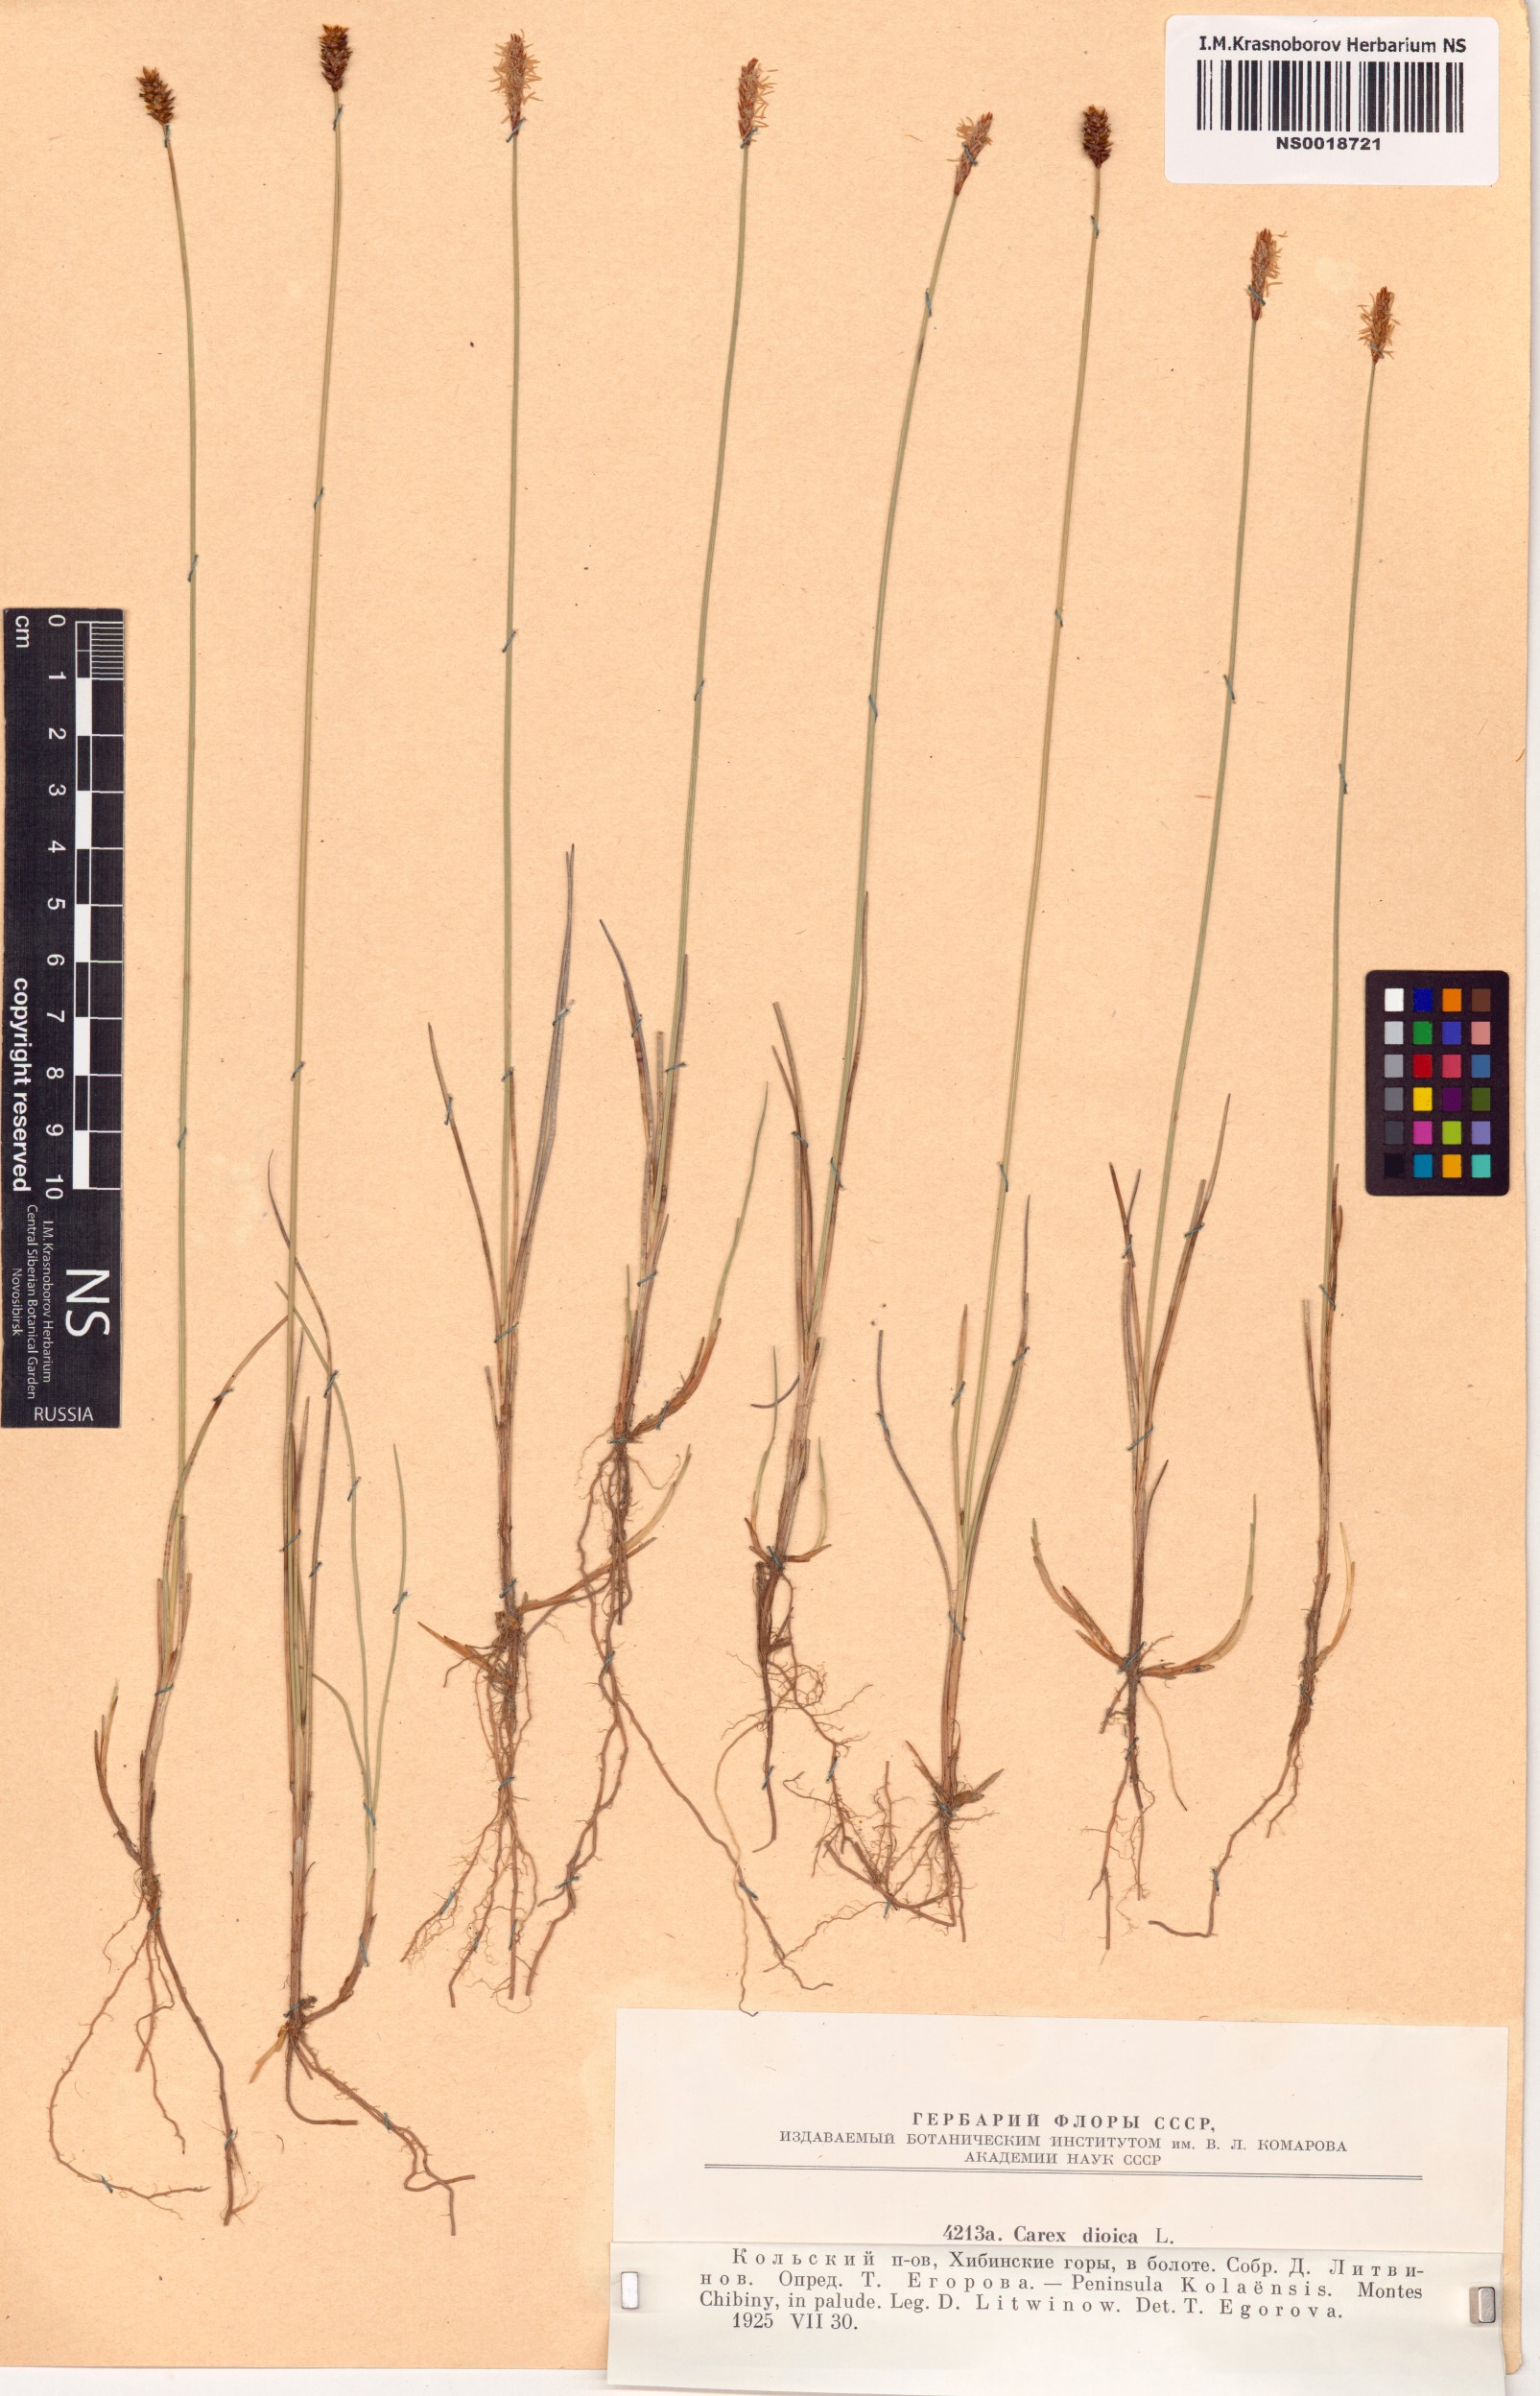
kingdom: Plantae
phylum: Tracheophyta
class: Liliopsida
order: Poales
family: Cyperaceae
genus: Carex
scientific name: Carex dioica
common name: Dioecious sedge
